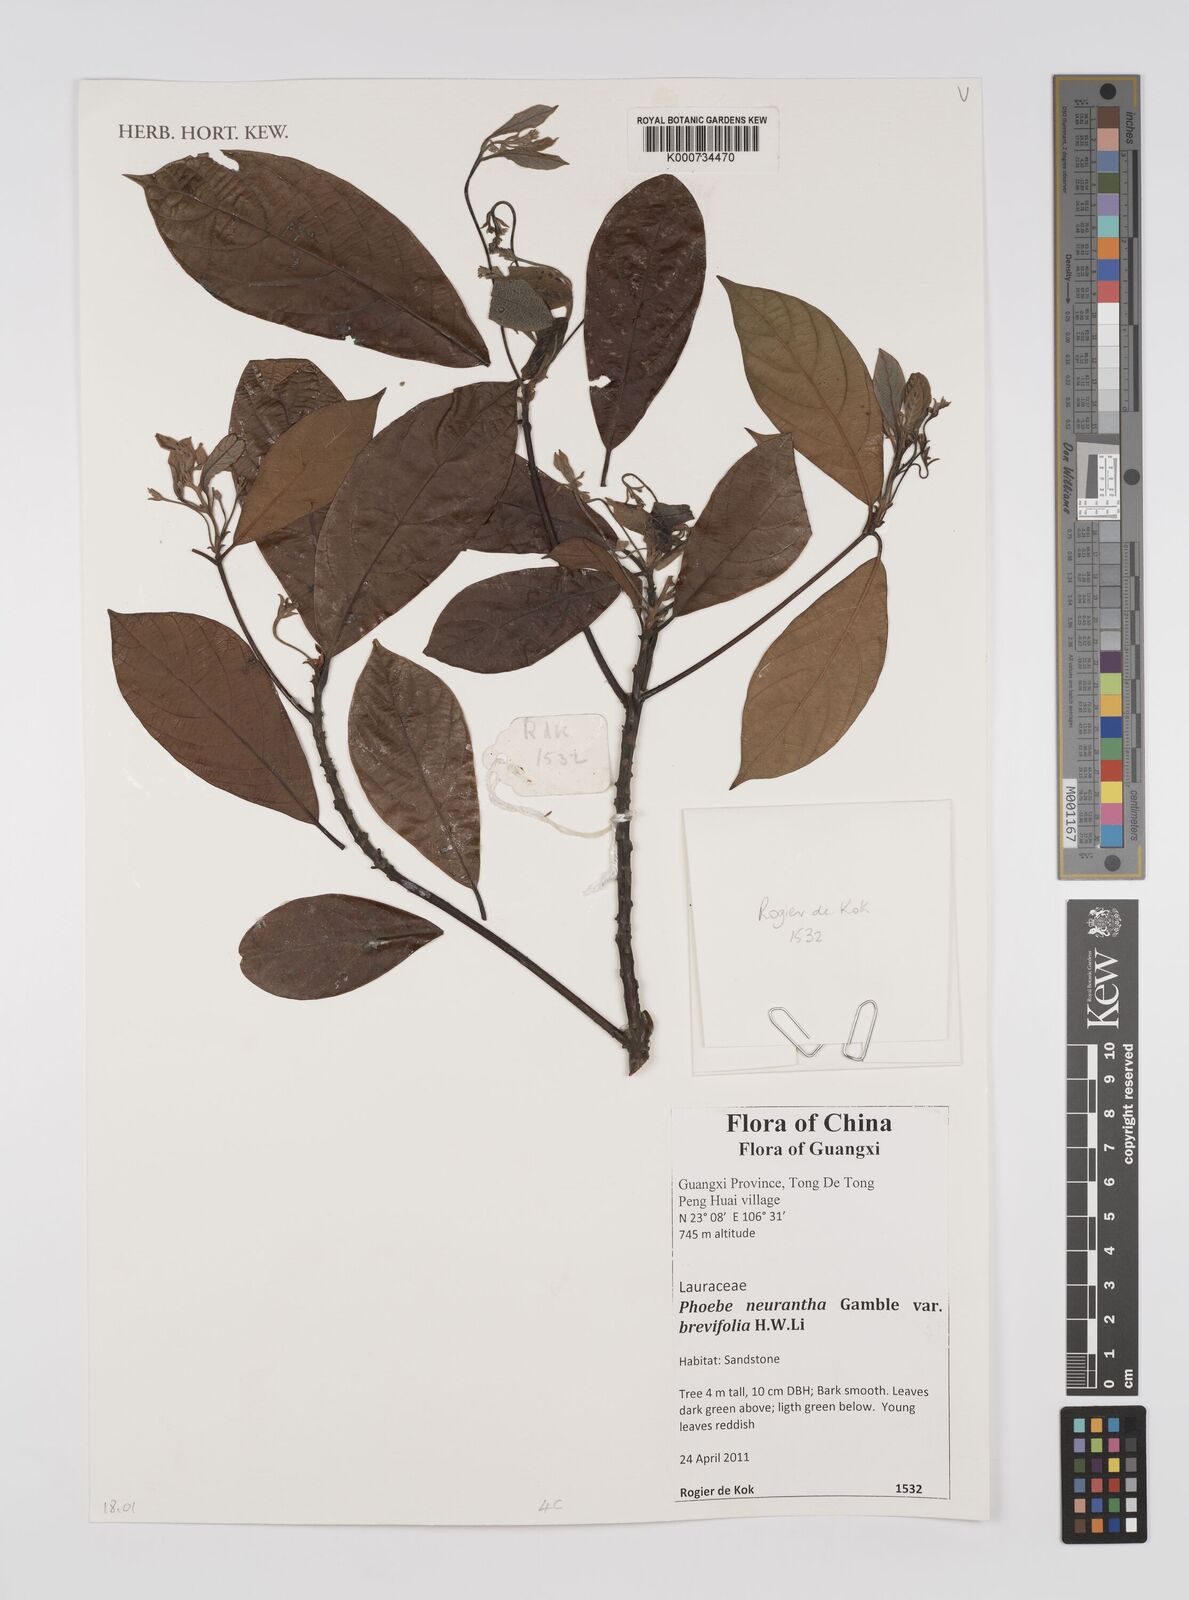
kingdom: Plantae
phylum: Tracheophyta
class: Magnoliopsida
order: Laurales
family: Lauraceae
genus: Phoebe
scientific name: Phoebe neurantha
